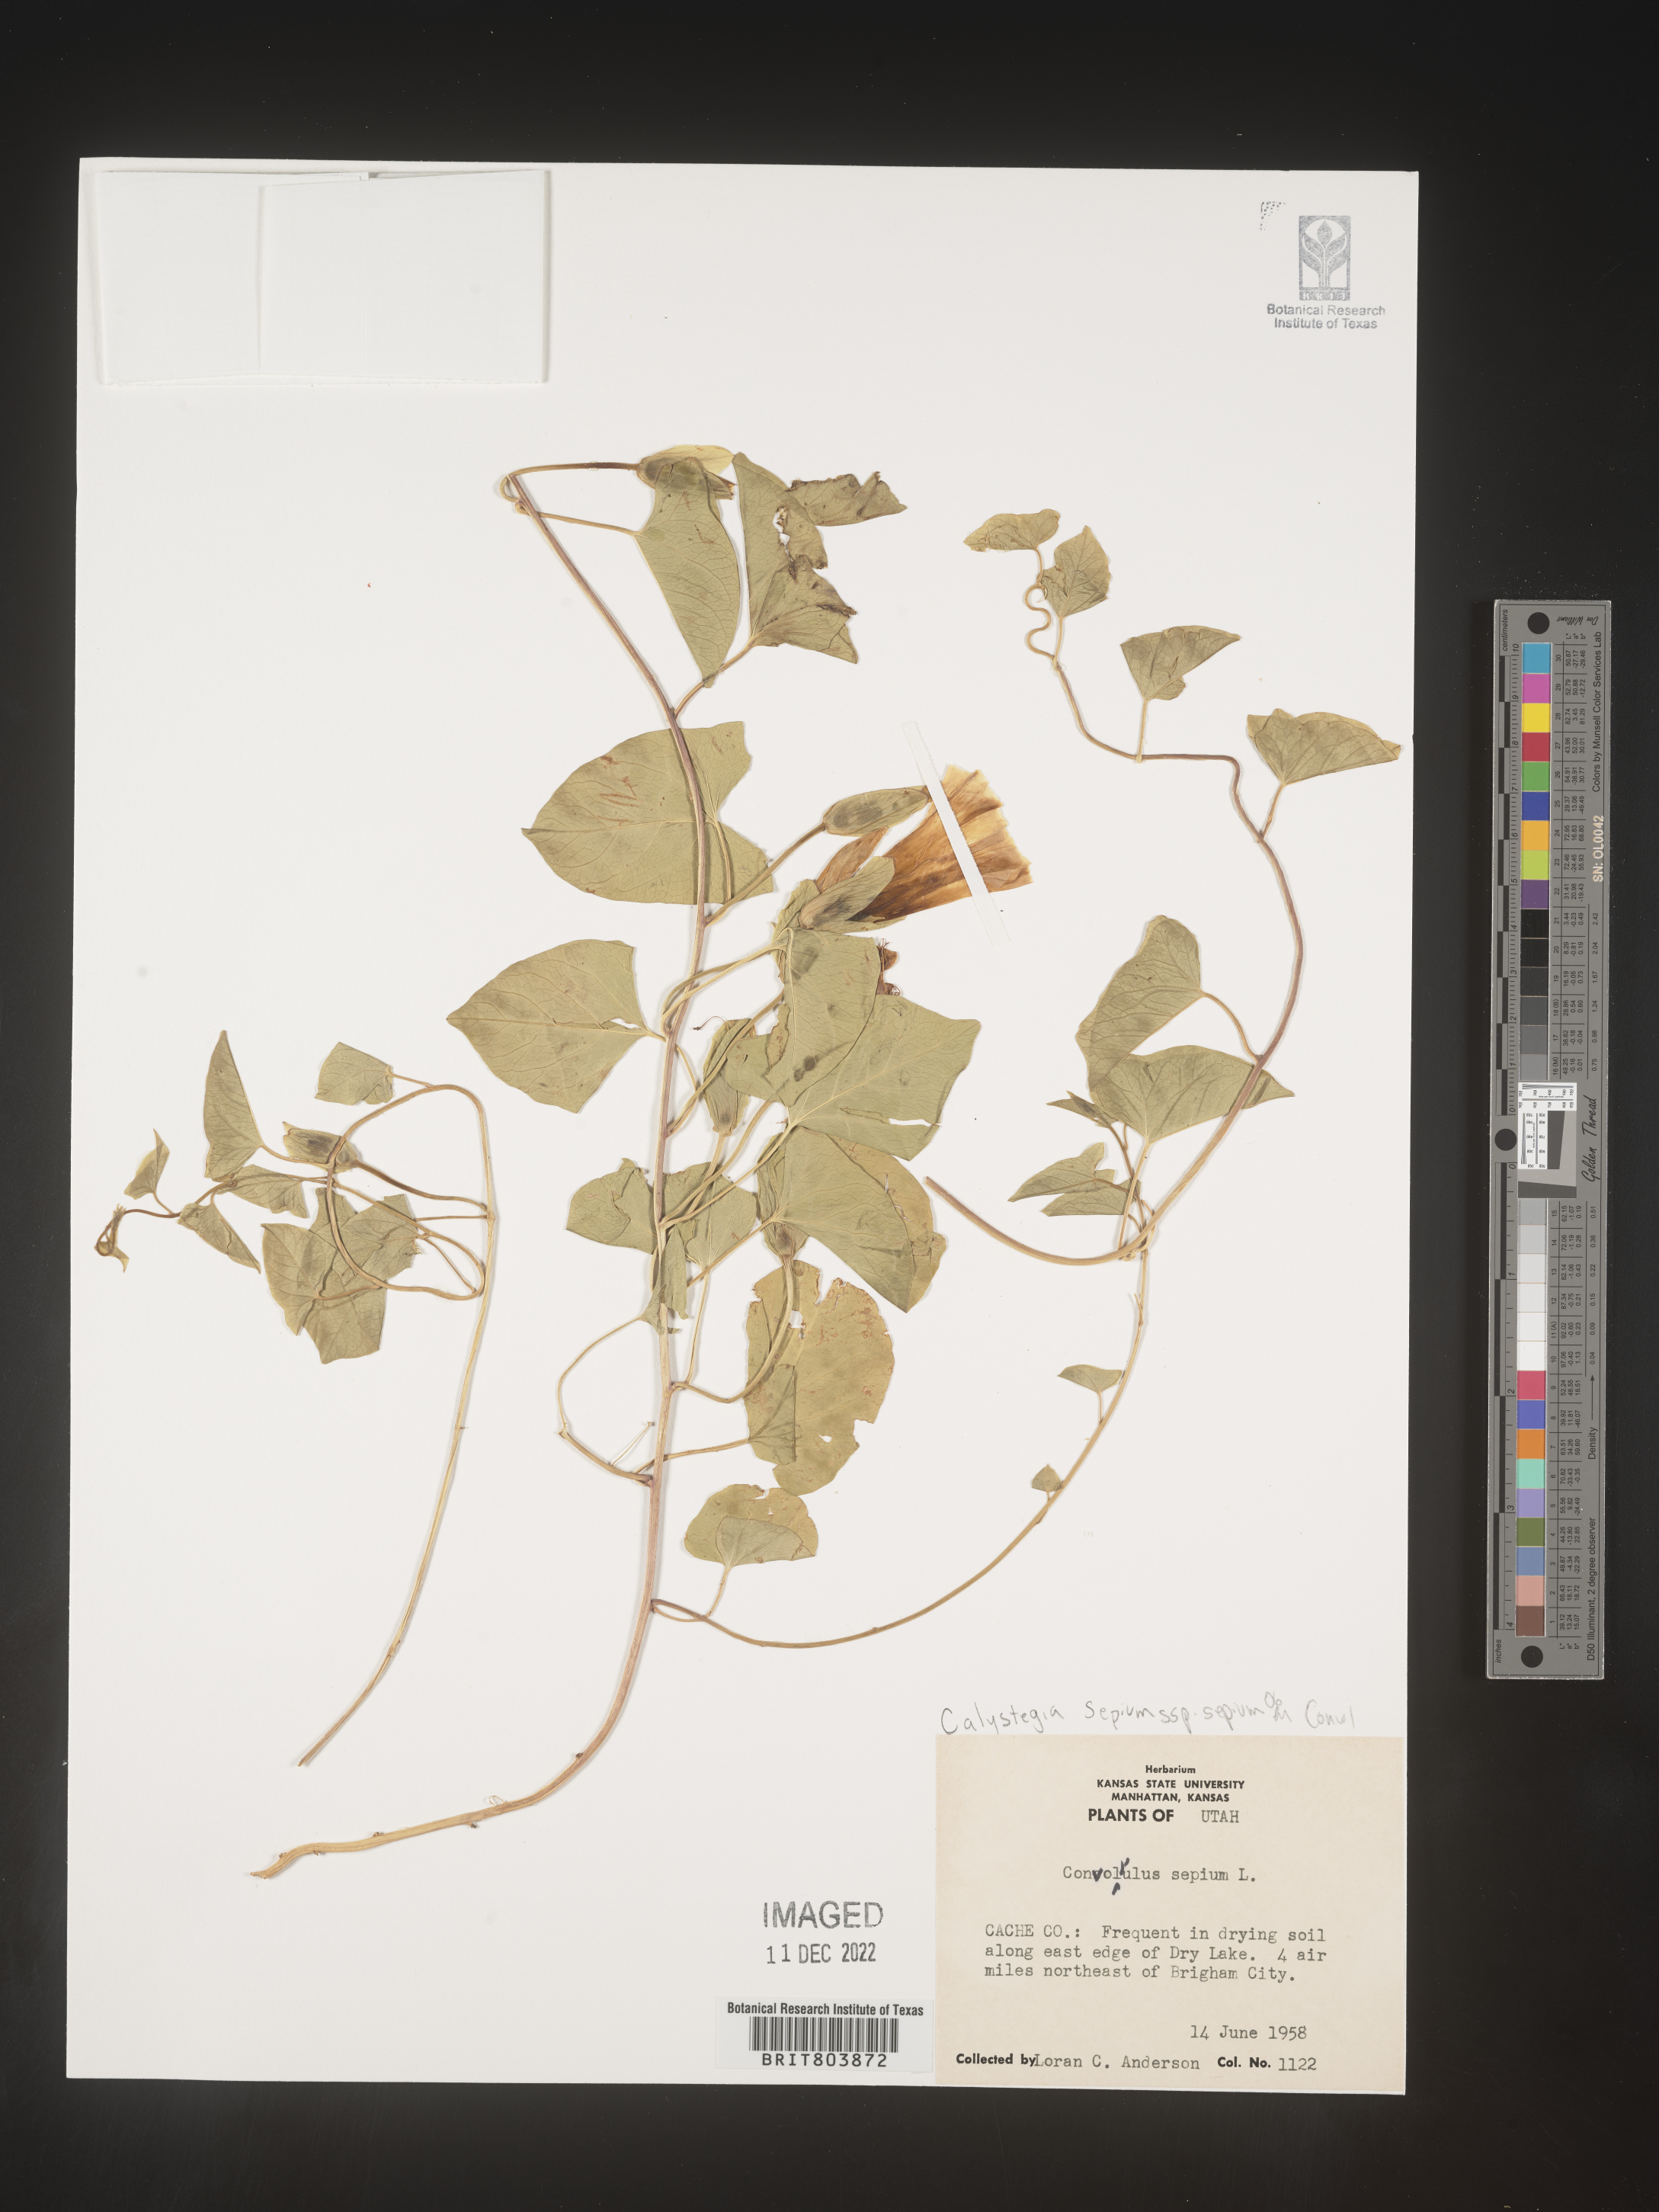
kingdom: Plantae
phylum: Tracheophyta
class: Magnoliopsida
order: Solanales
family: Convolvulaceae
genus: Calystegia
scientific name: Calystegia sepium
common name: Hedge bindweed
